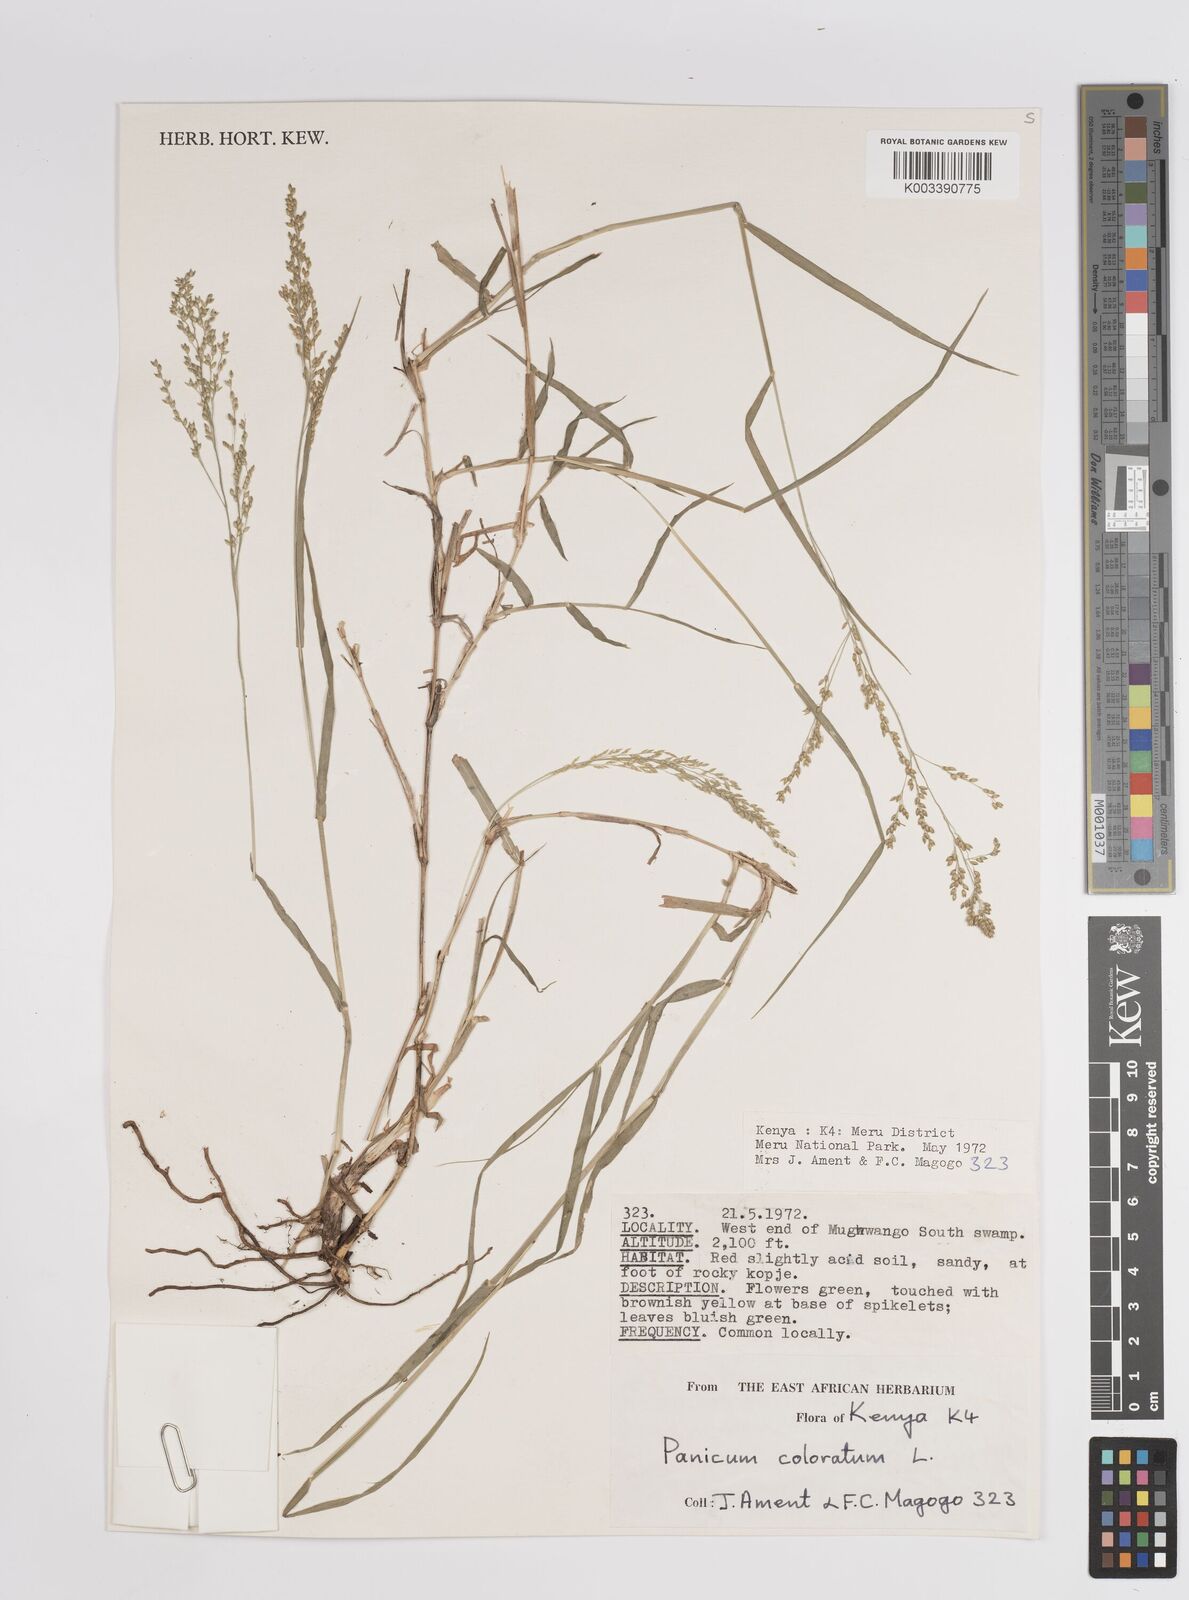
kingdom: Plantae
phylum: Tracheophyta
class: Liliopsida
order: Poales
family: Poaceae
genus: Panicum
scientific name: Panicum coloratum
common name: Kleingrass
